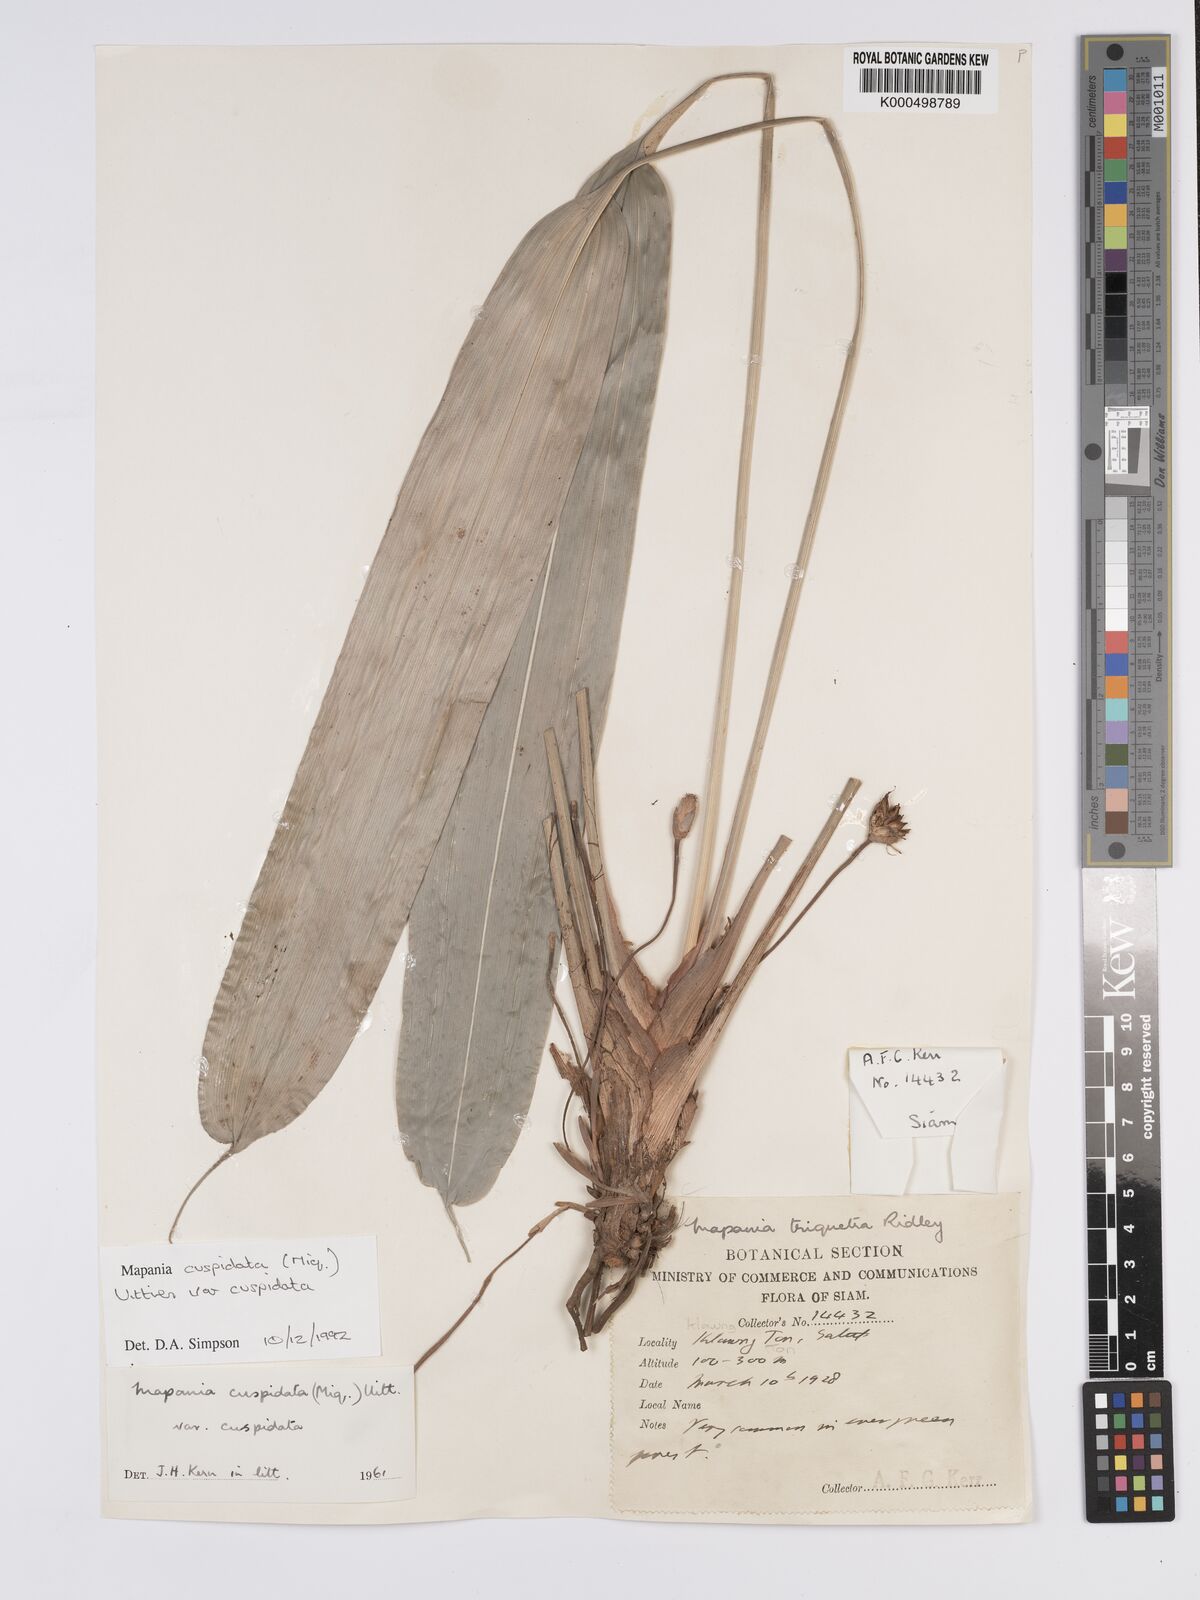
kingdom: Plantae
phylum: Tracheophyta
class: Liliopsida
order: Poales
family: Cyperaceae
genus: Mapania
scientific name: Mapania cuspidata
